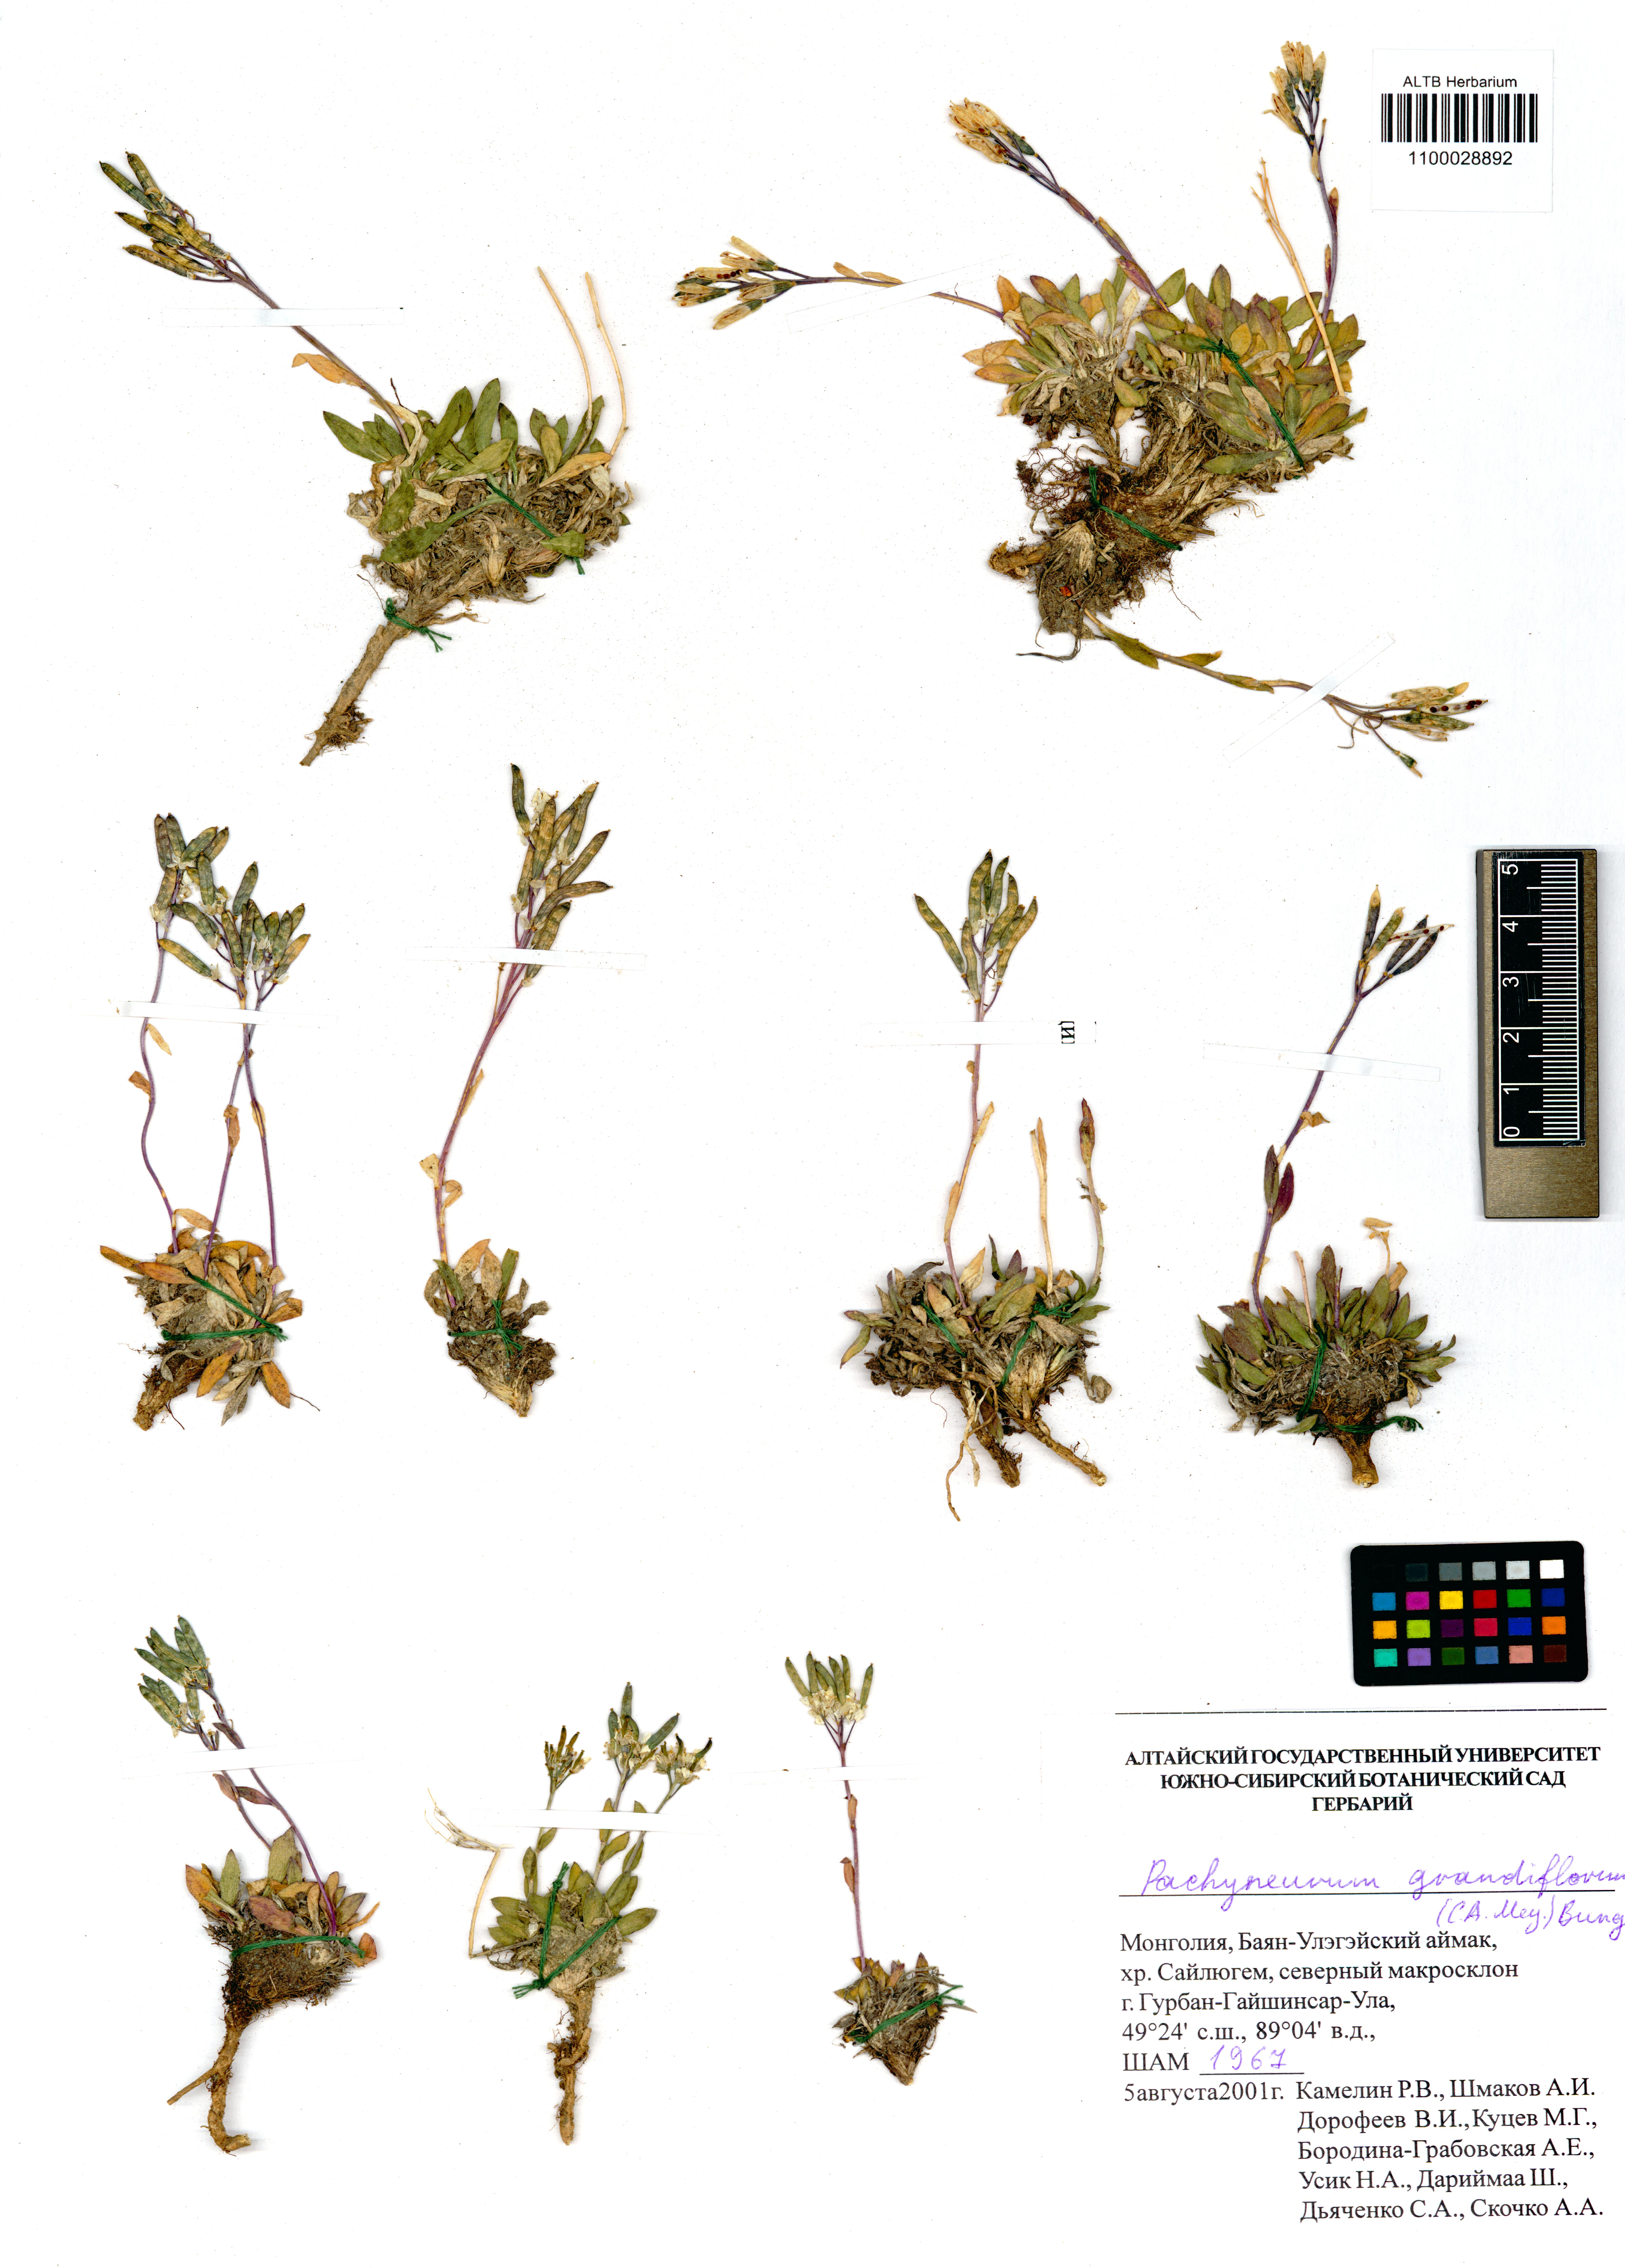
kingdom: Plantae
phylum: Tracheophyta
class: Magnoliopsida
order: Brassicales
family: Brassicaceae
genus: Pachyneurum
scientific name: Pachyneurum grandiflorum
